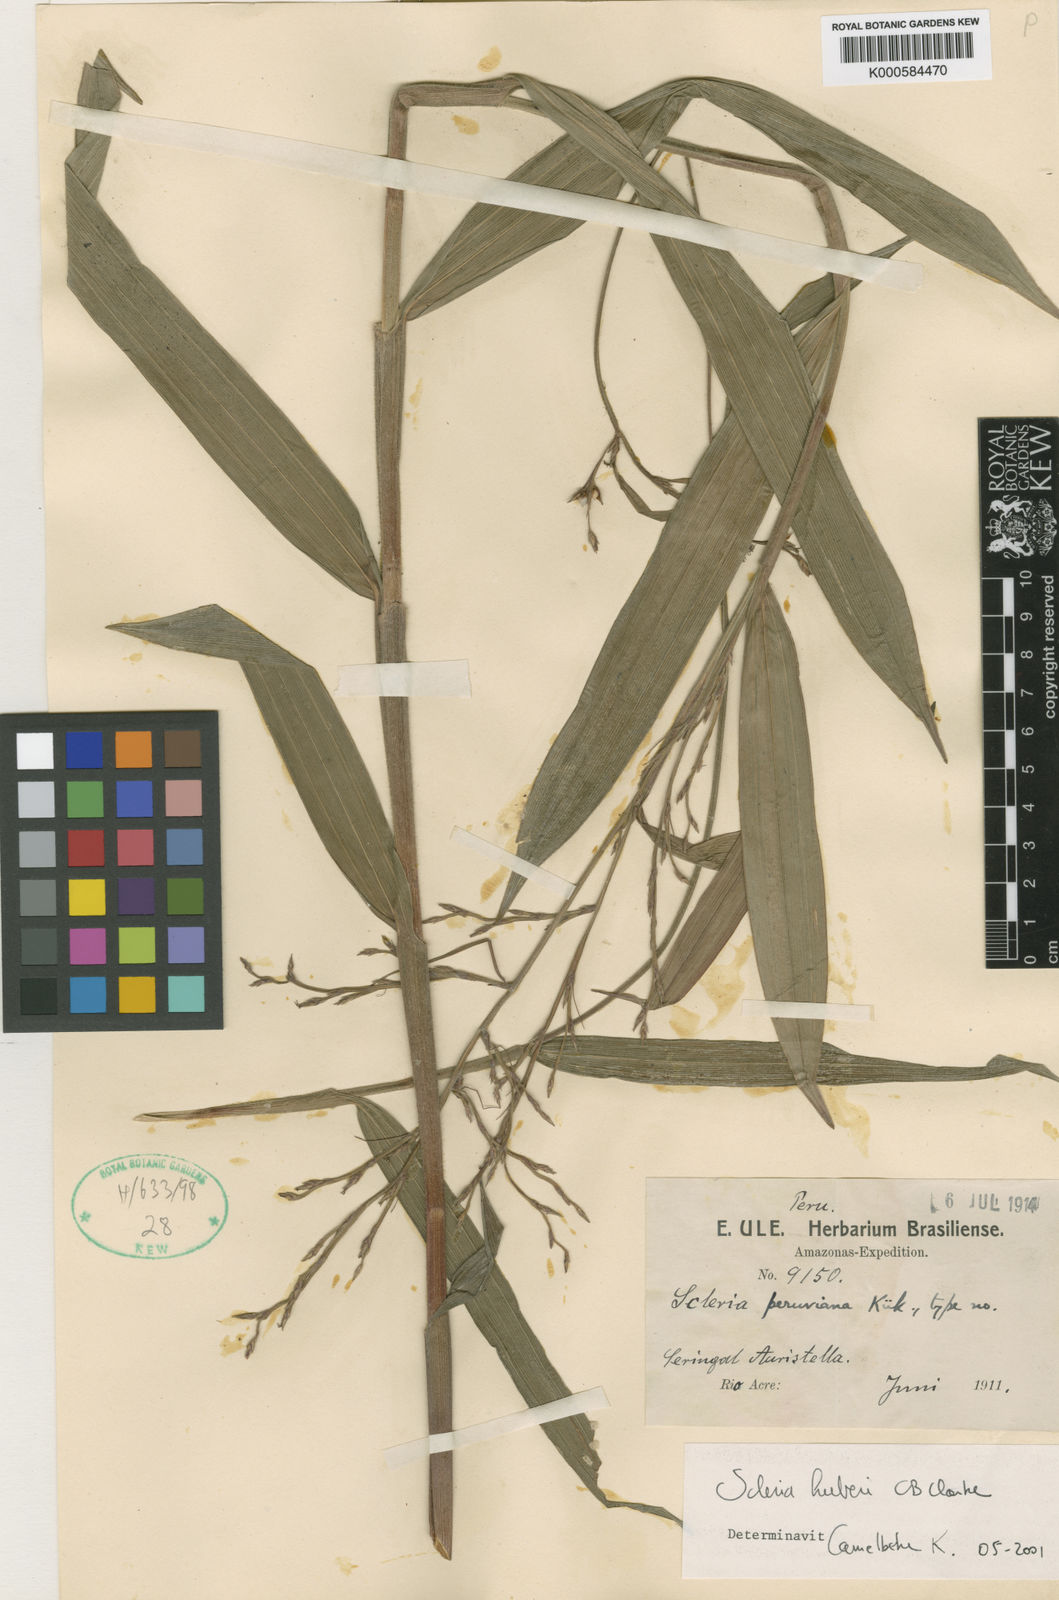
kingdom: Plantae
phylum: Tracheophyta
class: Liliopsida
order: Poales
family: Cyperaceae
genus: Scleria
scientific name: Scleria
